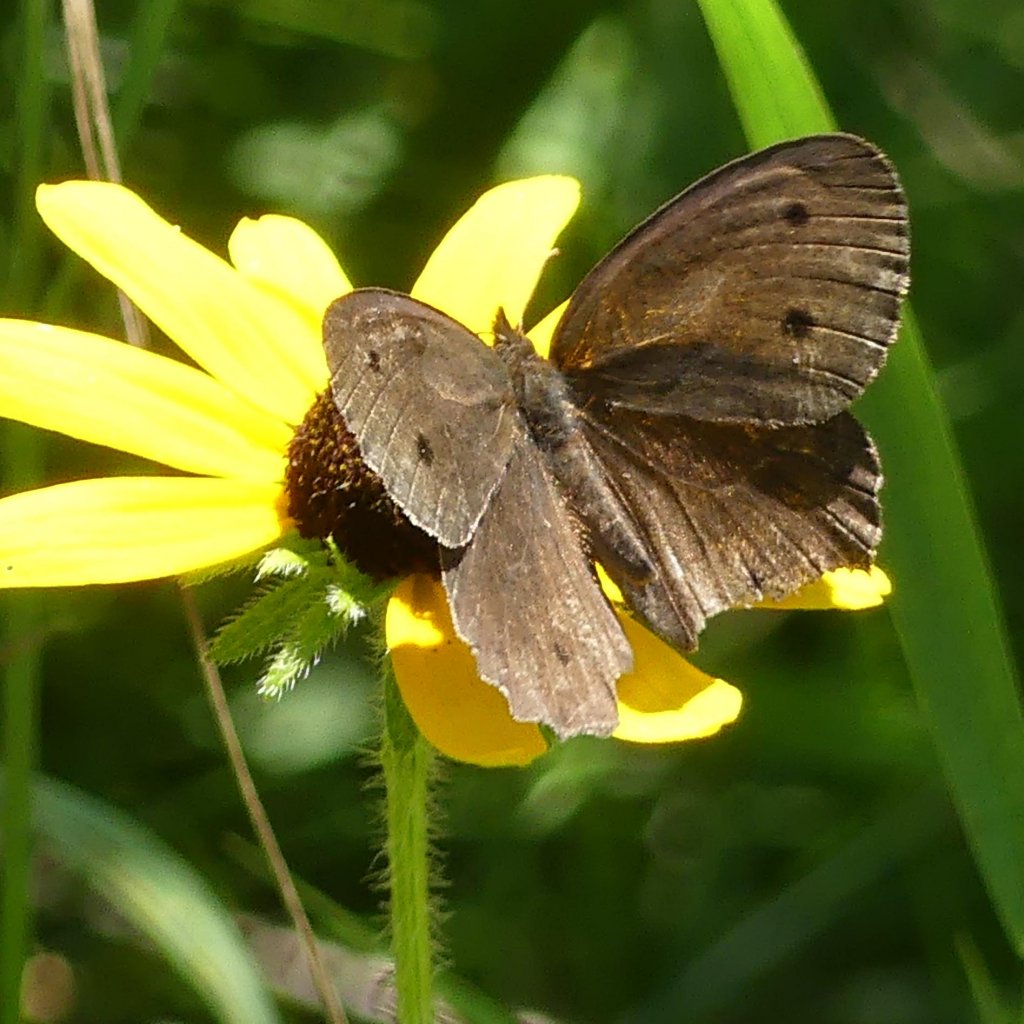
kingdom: Animalia
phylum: Arthropoda
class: Insecta
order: Lepidoptera
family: Nymphalidae
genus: Cercyonis
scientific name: Cercyonis pegala
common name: Common Wood-Nymph
